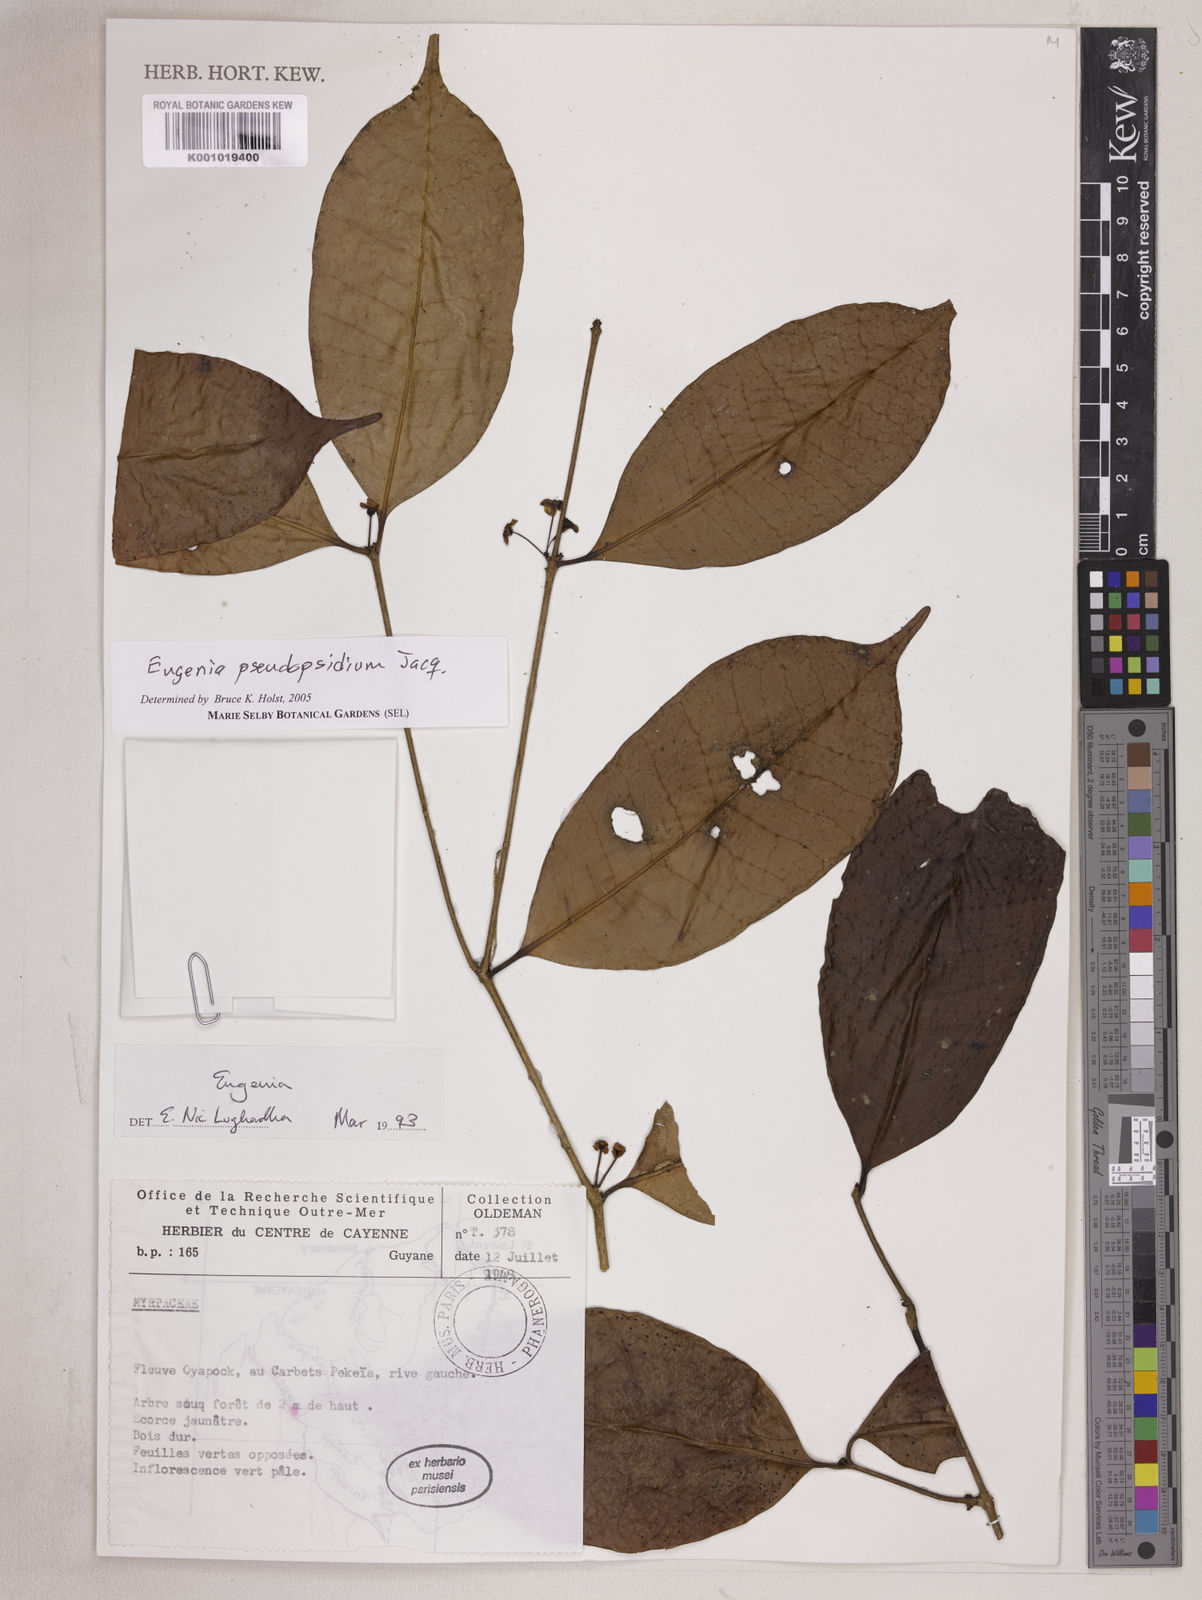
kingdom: Plantae
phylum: Tracheophyta
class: Magnoliopsida
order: Myrtales
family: Myrtaceae
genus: Eugenia
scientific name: Eugenia pseudopsidium
